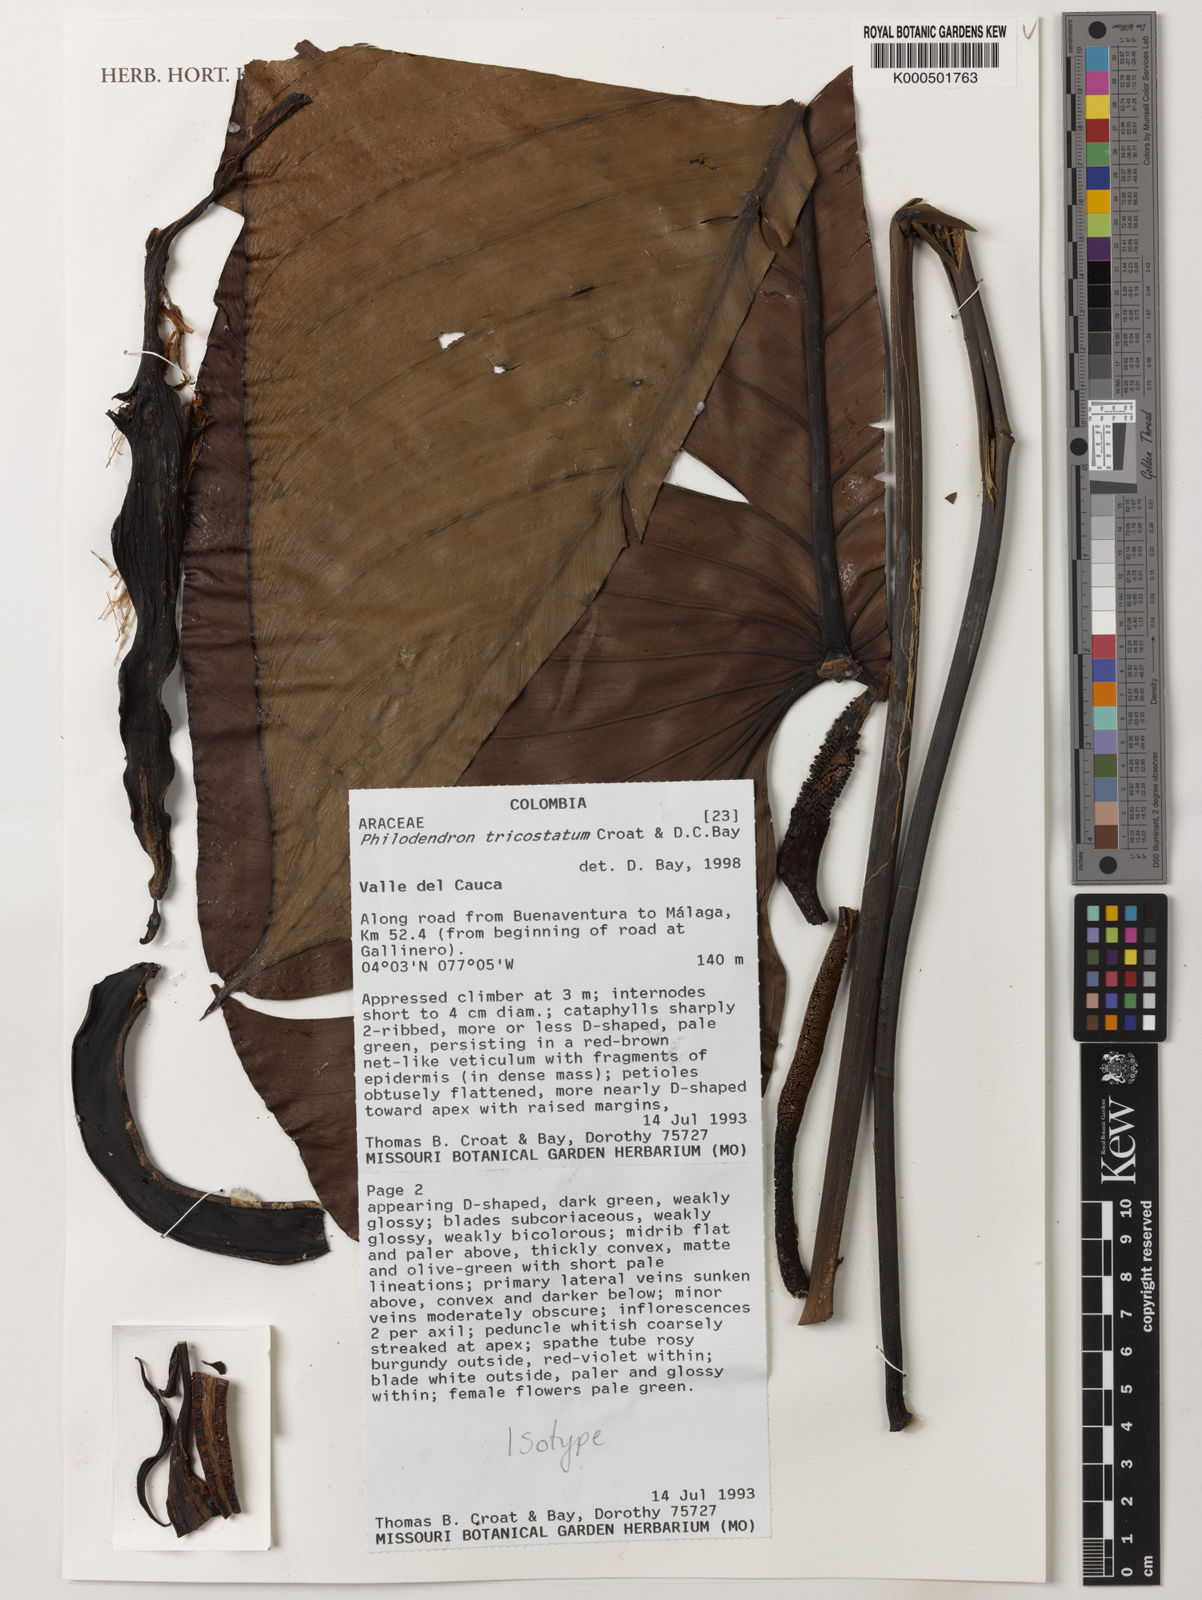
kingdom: Plantae
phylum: Tracheophyta
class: Liliopsida
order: Alismatales
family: Araceae
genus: Philodendron
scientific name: Philodendron tricostatum
